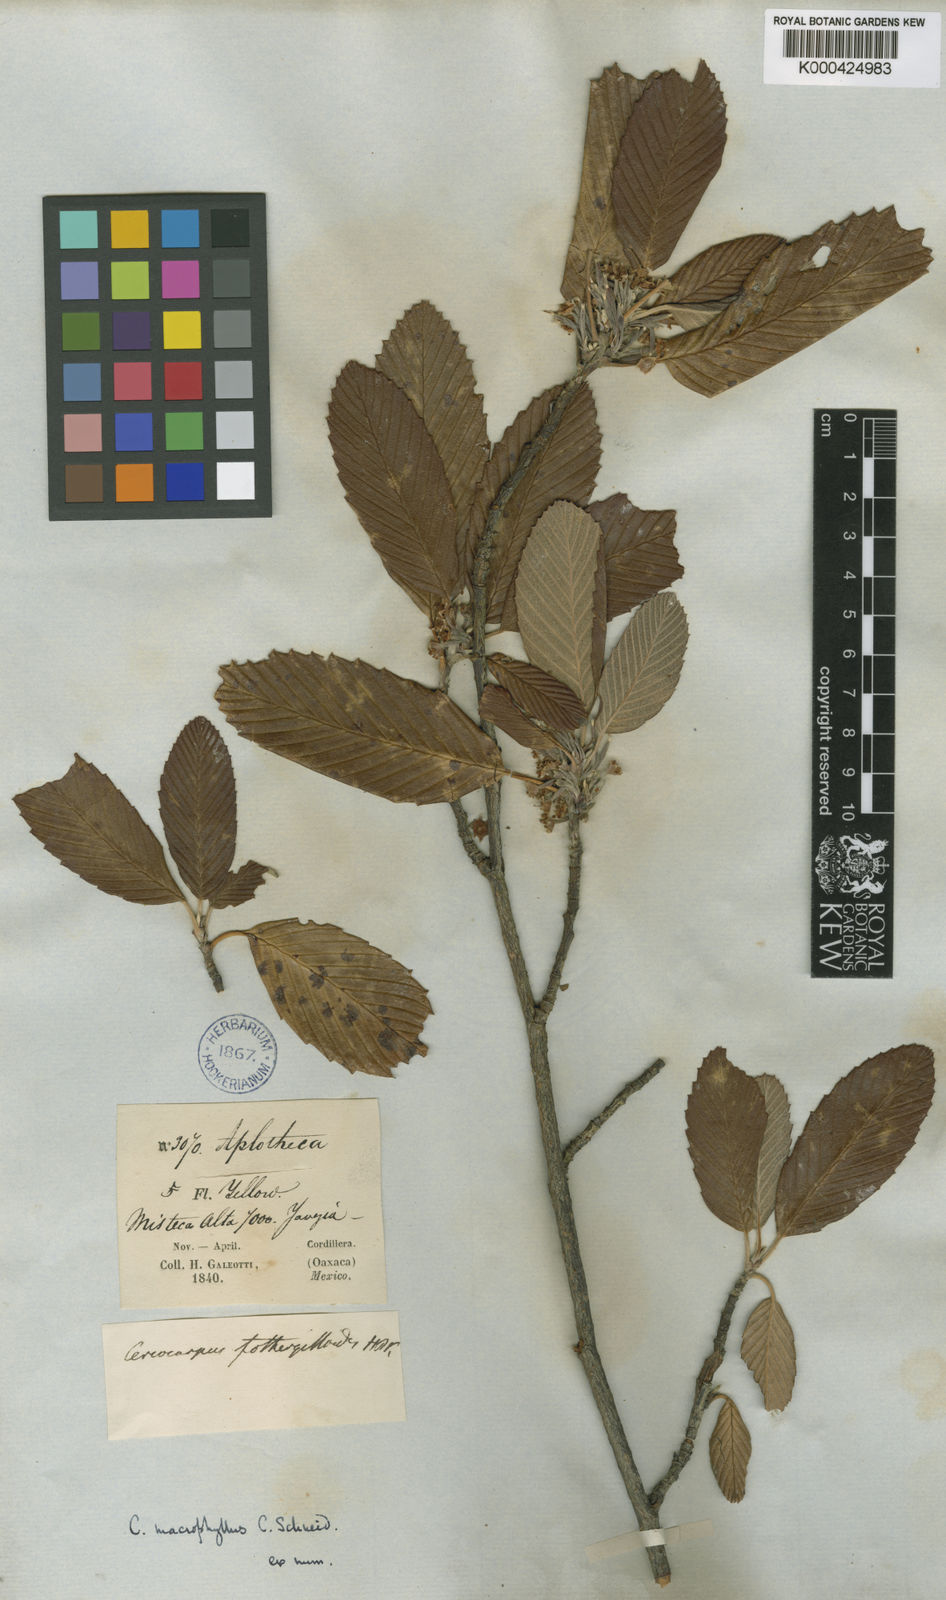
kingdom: Plantae
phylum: Tracheophyta
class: Magnoliopsida
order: Rosales
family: Rosaceae
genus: Cercocarpus
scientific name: Cercocarpus
